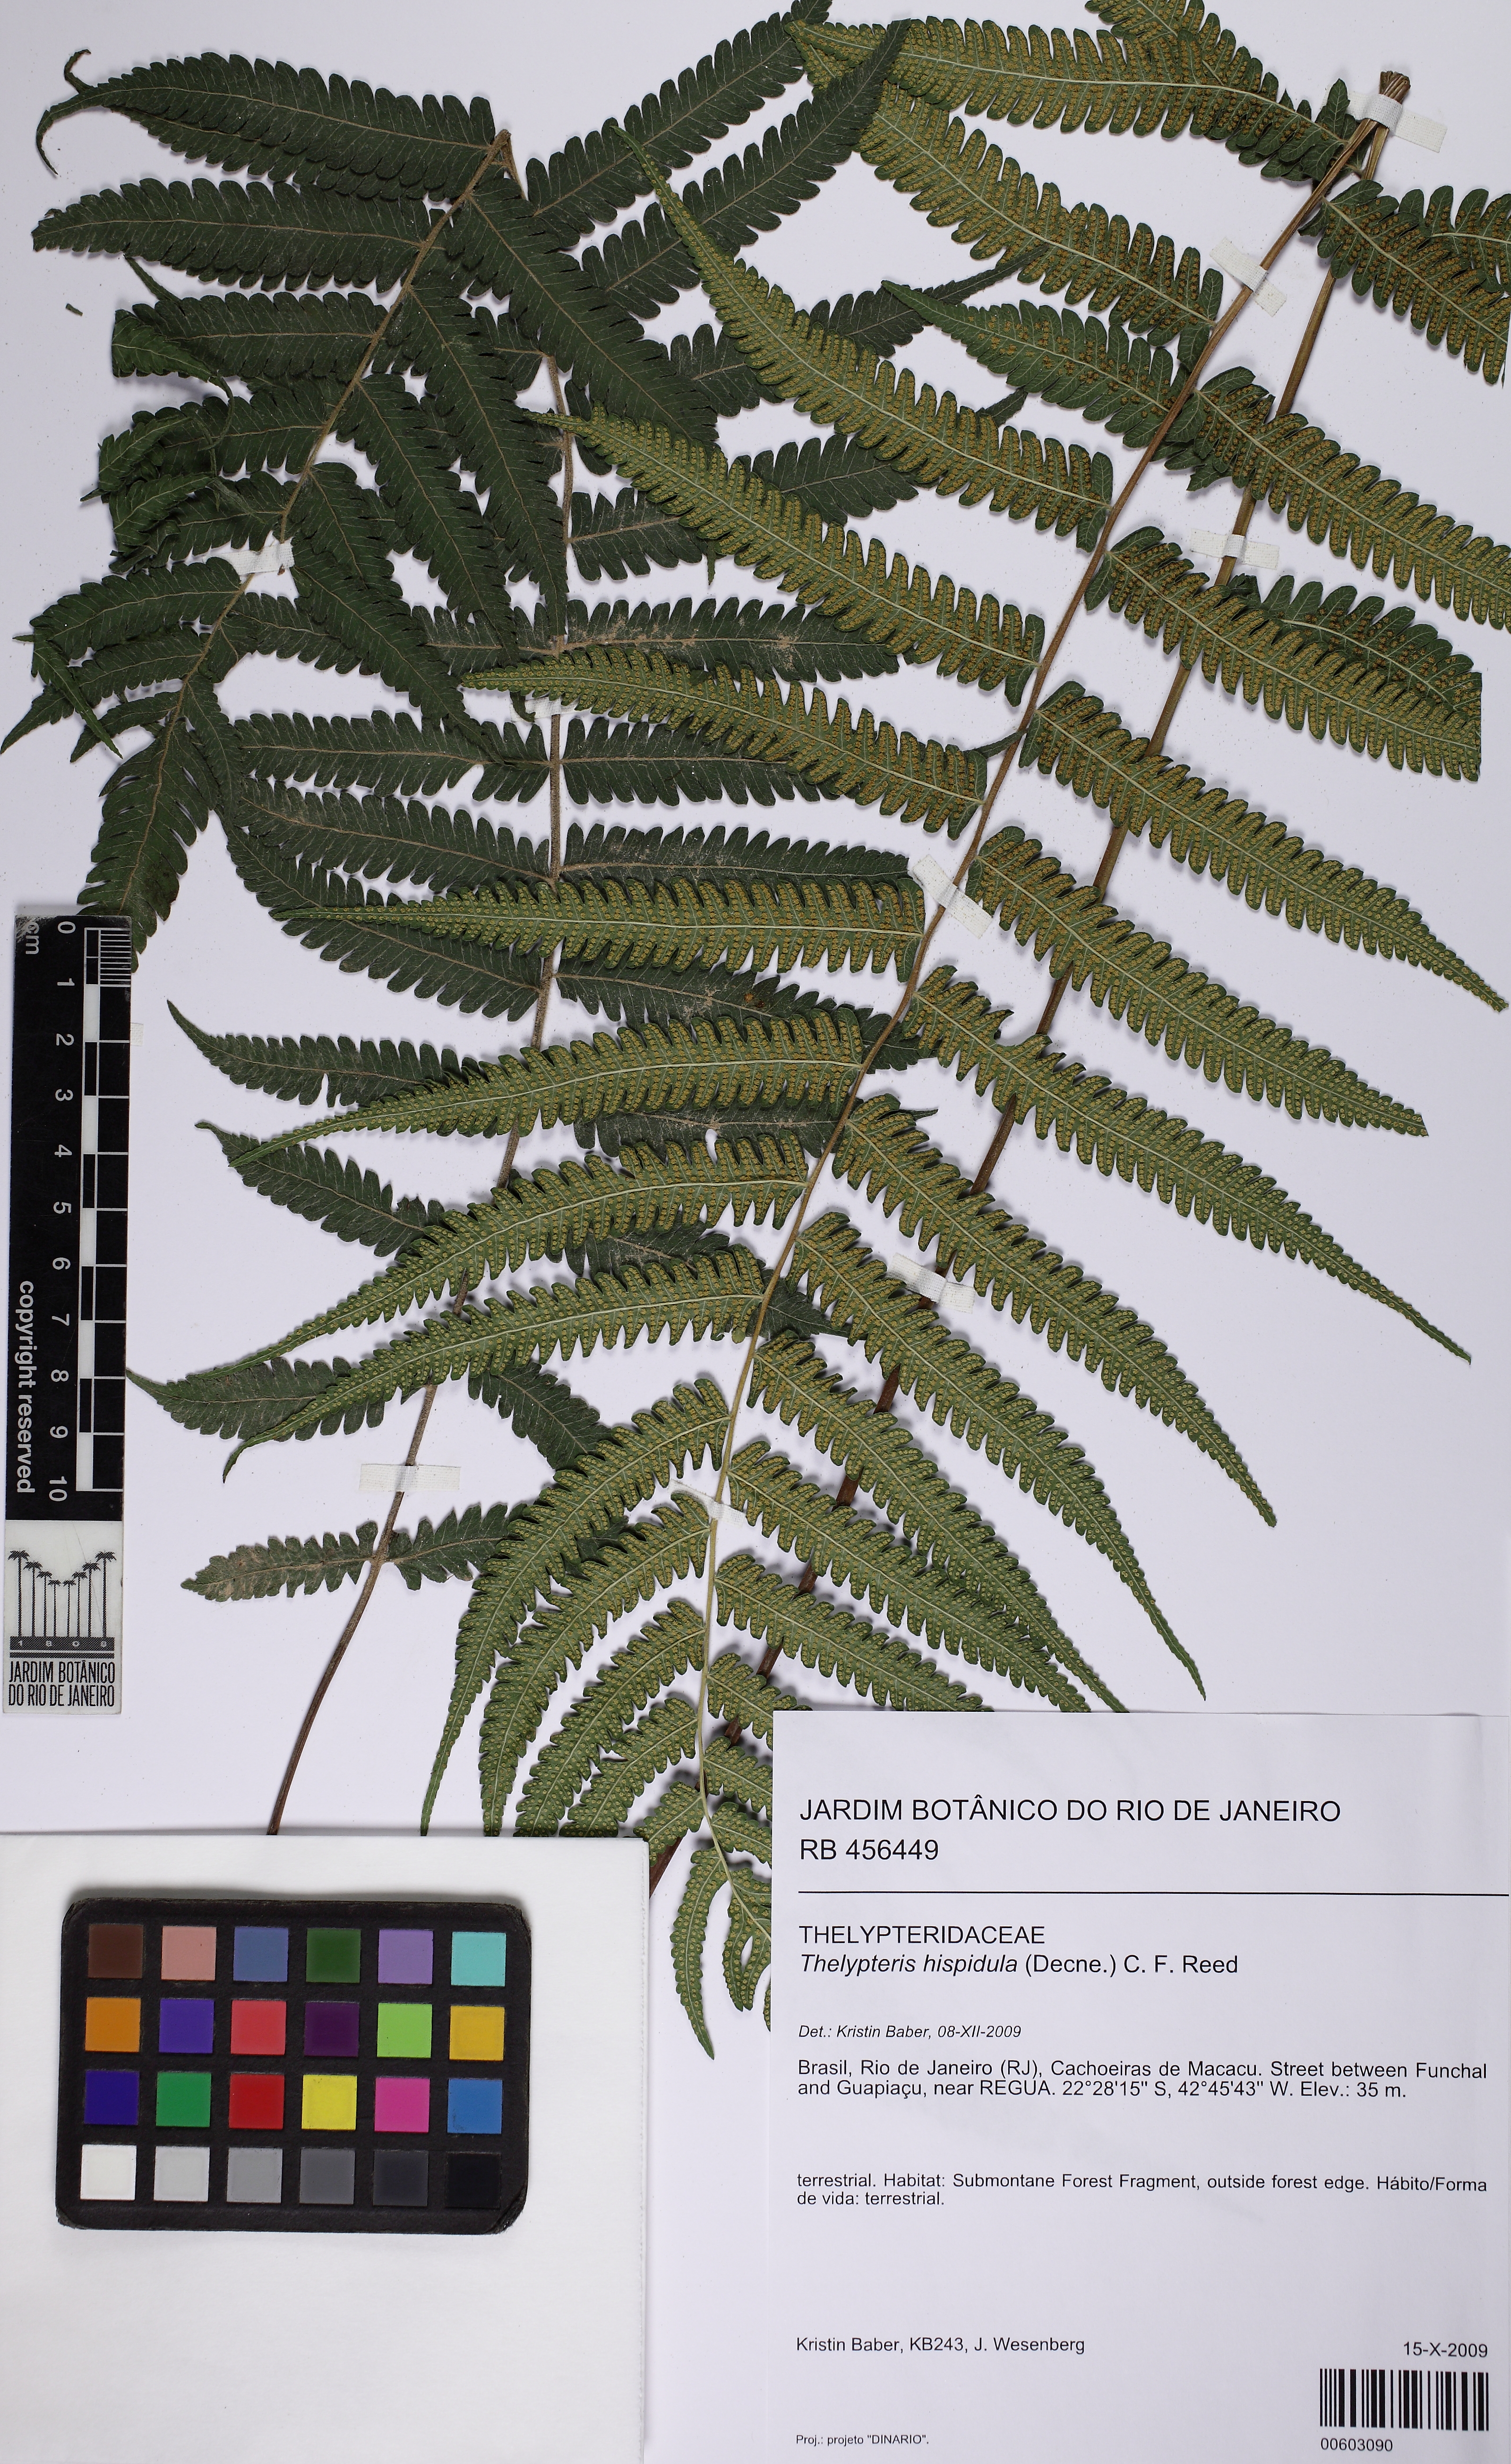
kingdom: Plantae
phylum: Tracheophyta
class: Polypodiopsida
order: Polypodiales
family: Thelypteridaceae
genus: Christella
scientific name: Christella hispidula
